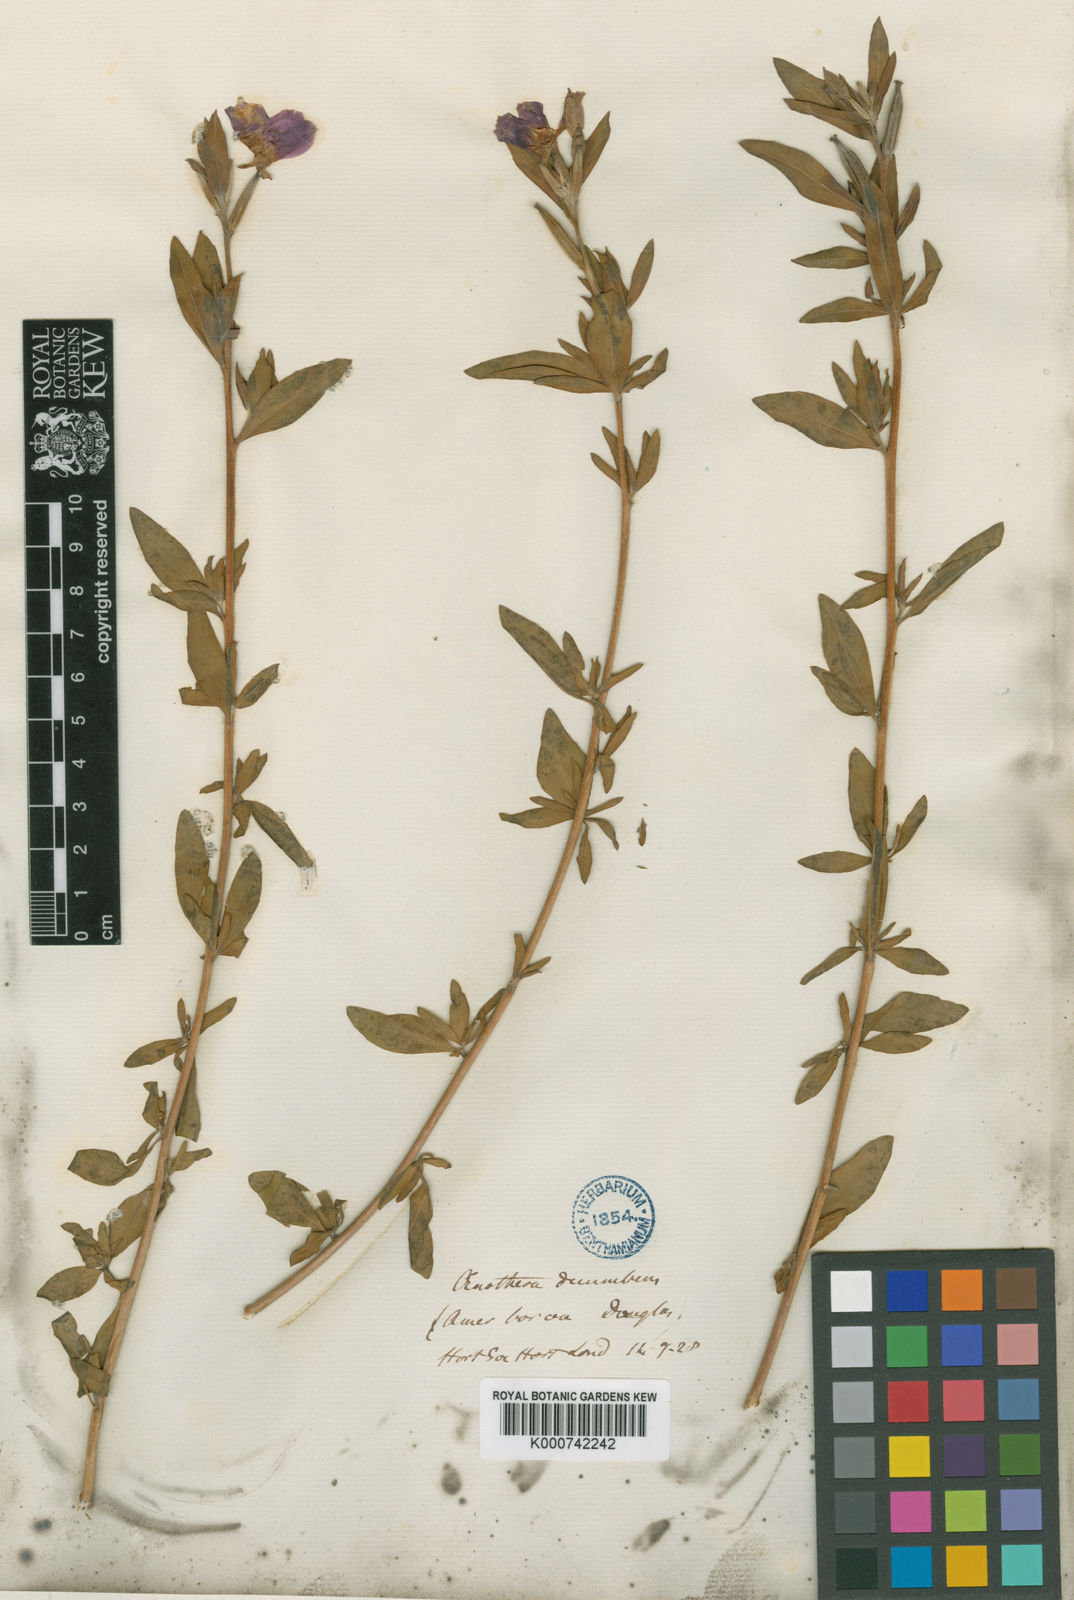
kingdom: Plantae
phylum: Tracheophyta
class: Magnoliopsida
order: Myrtales
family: Onagraceae
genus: Clarkia
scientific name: Clarkia purpurea
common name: Purple clarkia
